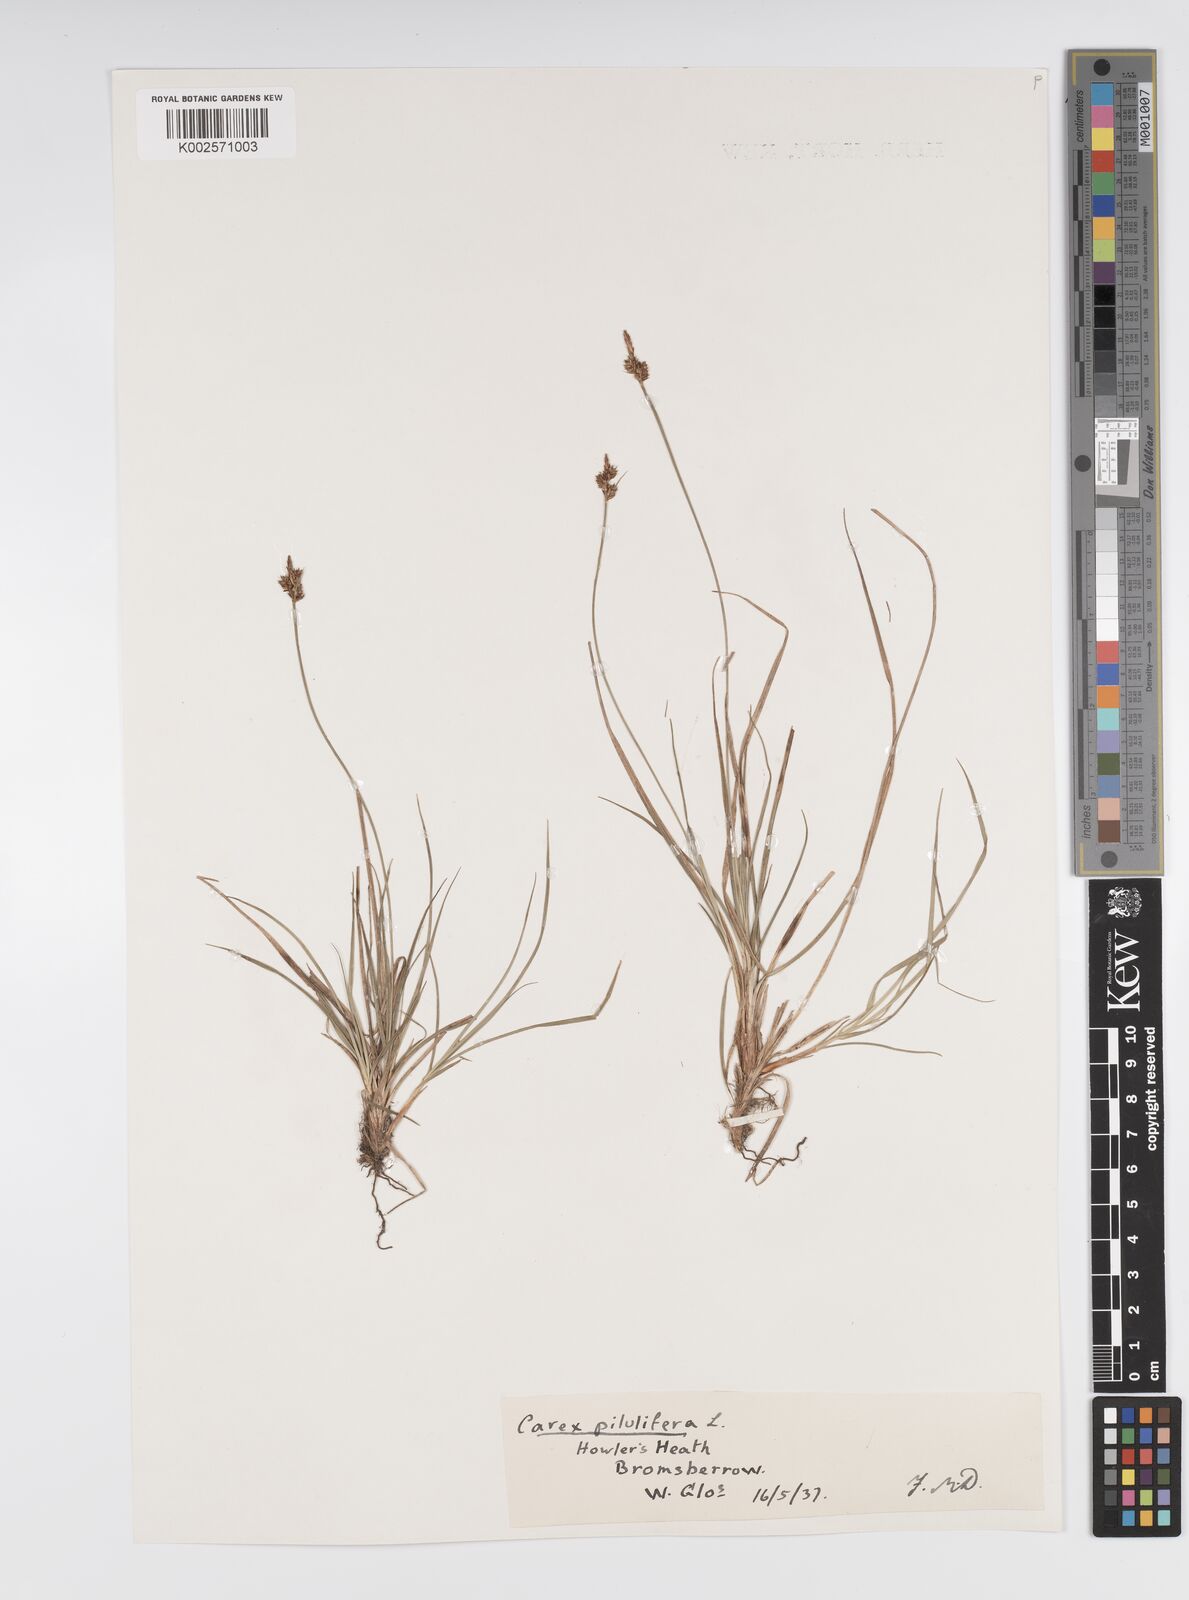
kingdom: Plantae
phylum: Tracheophyta
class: Liliopsida
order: Poales
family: Cyperaceae
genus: Carex
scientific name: Carex praecox
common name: Early sedge
